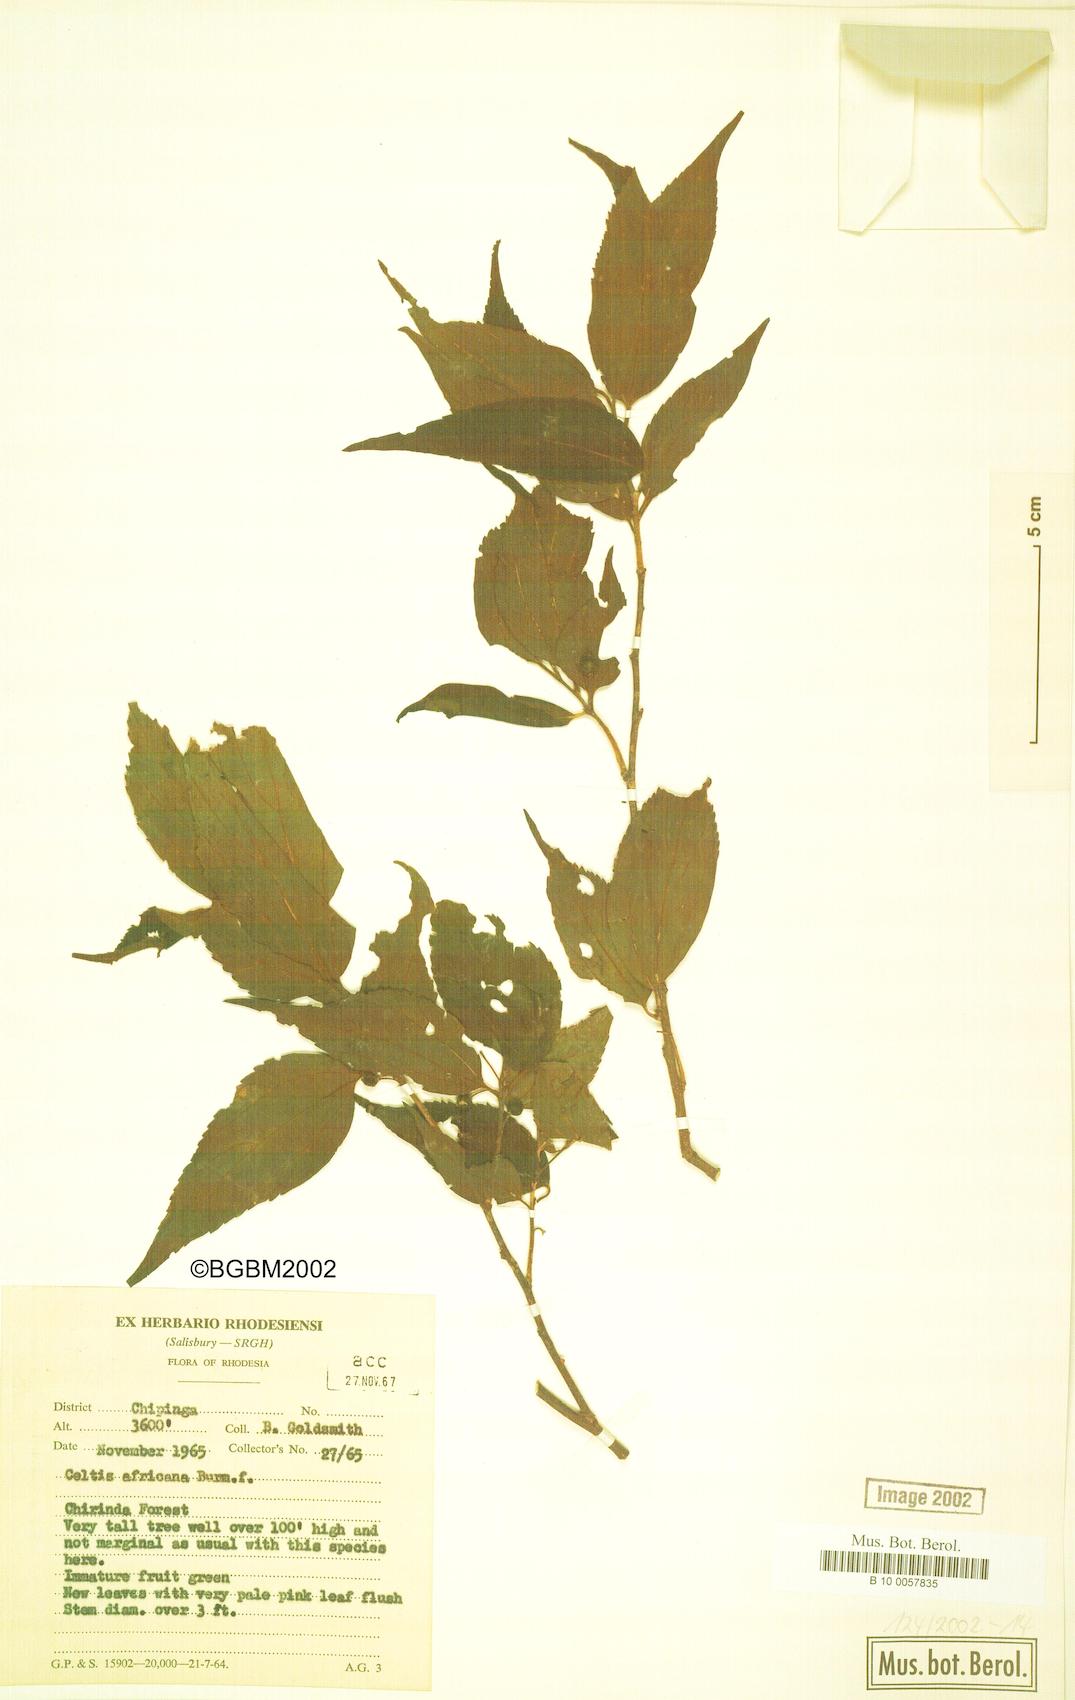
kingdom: Plantae
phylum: Tracheophyta
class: Magnoliopsida
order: Rosales
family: Cannabaceae
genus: Celtis
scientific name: Celtis africana
